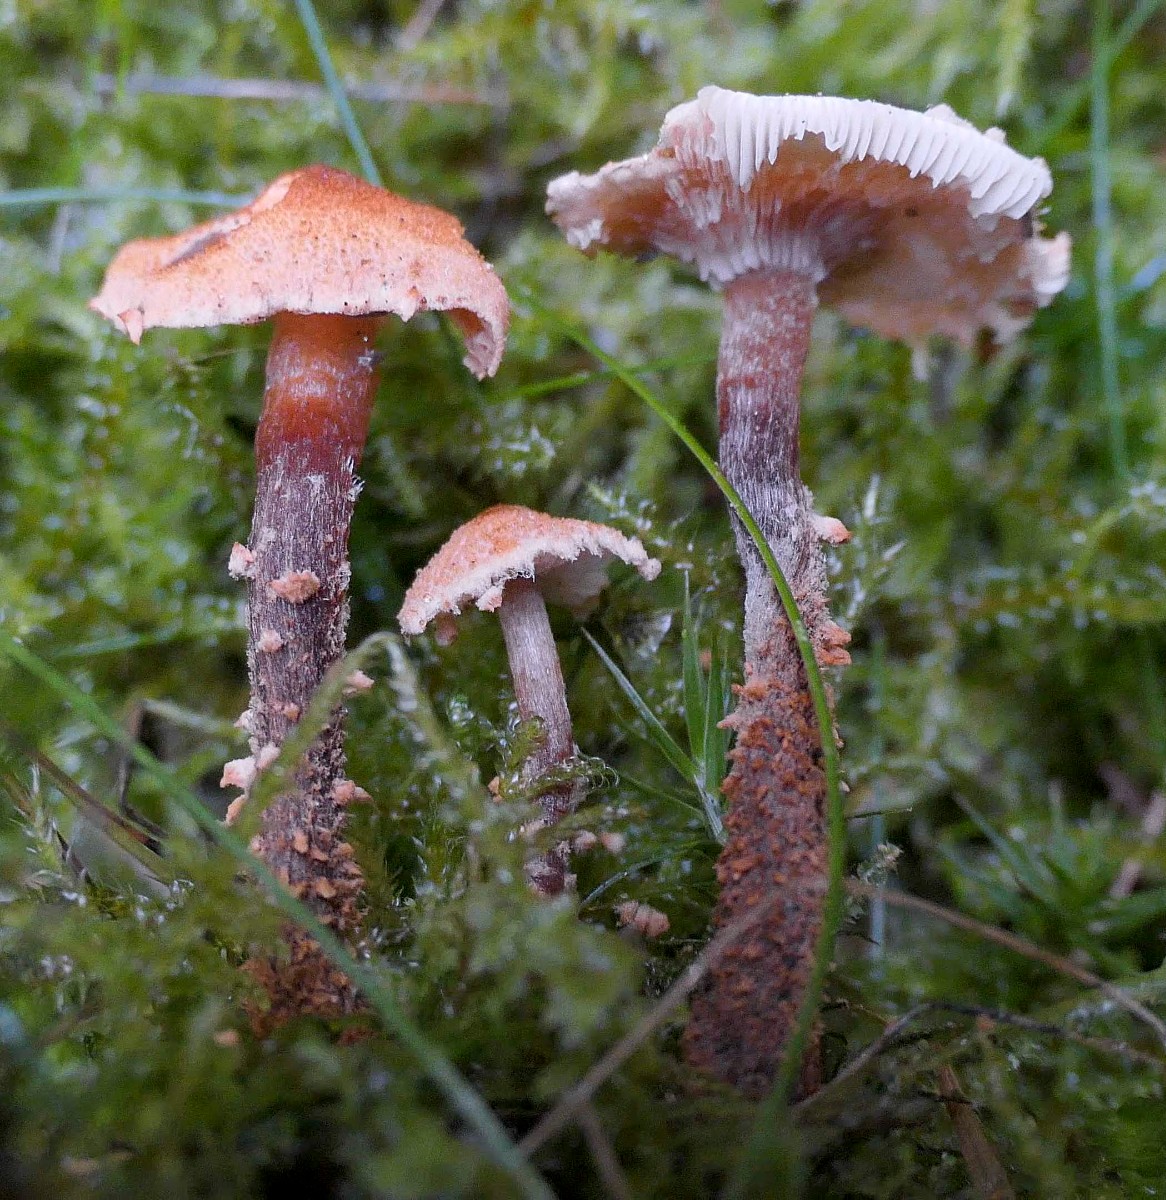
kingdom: Fungi
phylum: Basidiomycota
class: Agaricomycetes
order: Agaricales
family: Tricholomataceae
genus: Cystoderma
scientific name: Cystoderma jasonis
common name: gulkødet grynhat
